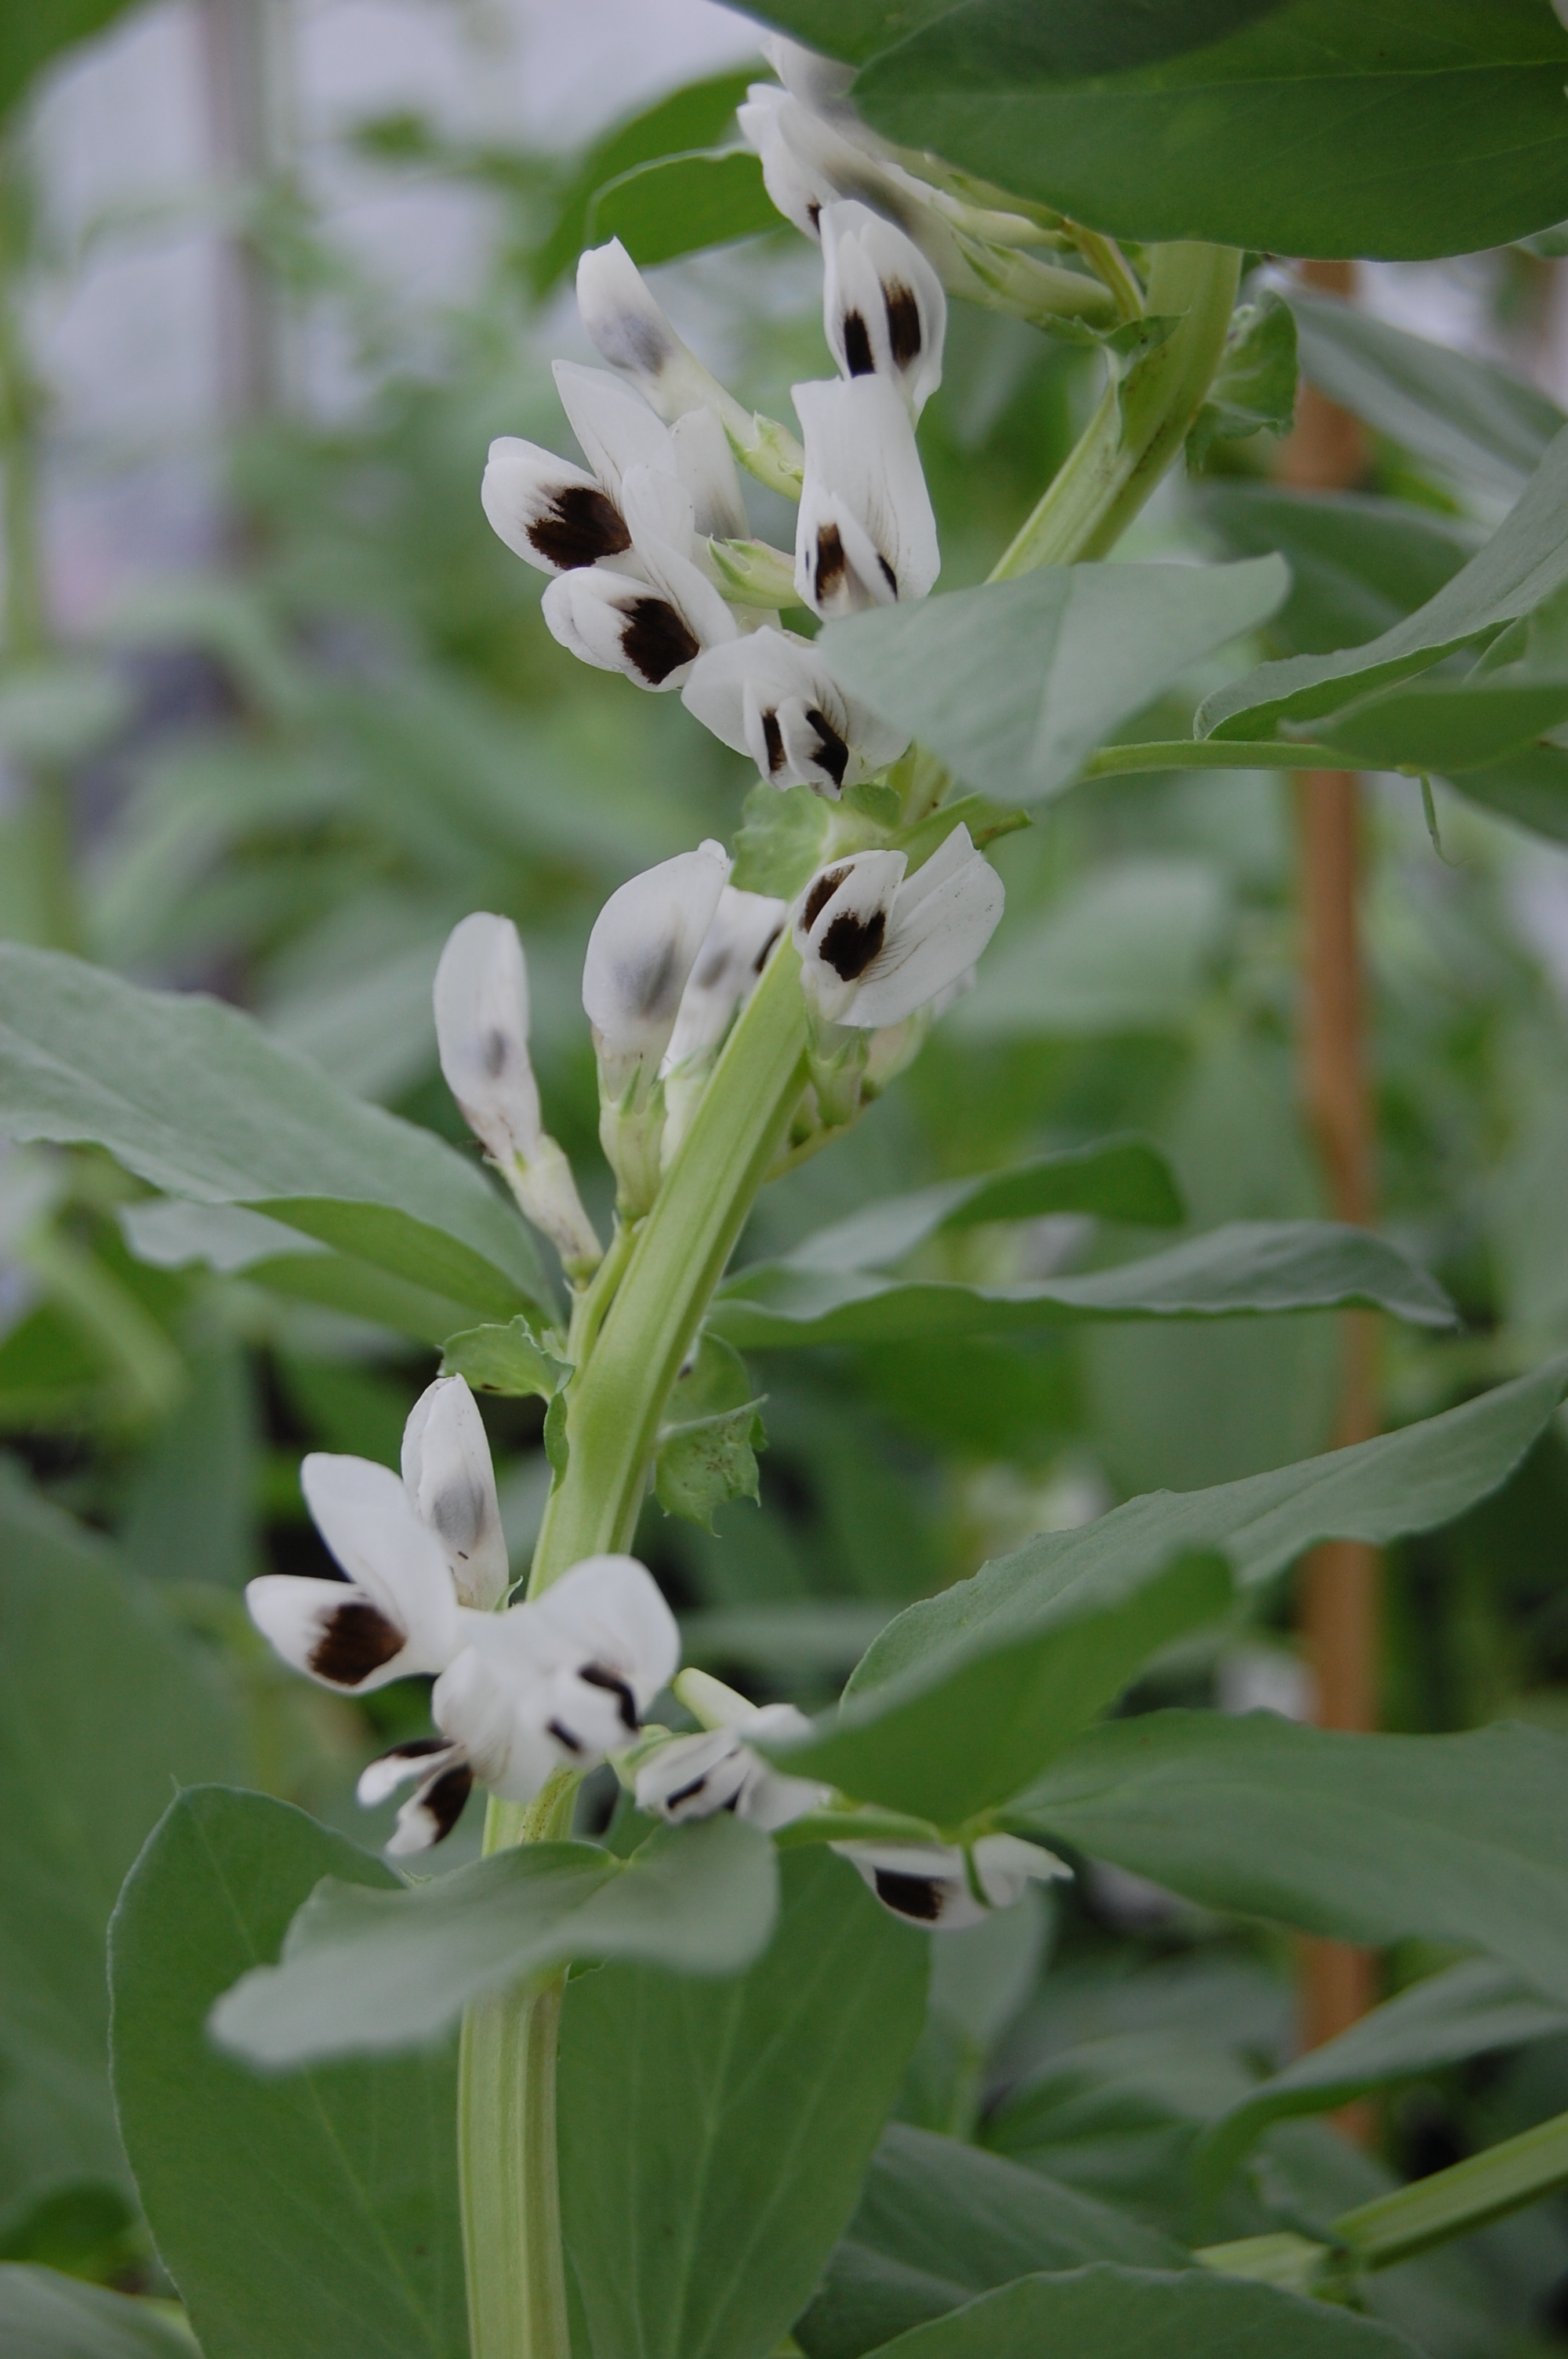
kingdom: Plantae
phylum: Tracheophyta
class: Magnoliopsida
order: Fabales
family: Fabaceae
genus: Vicia
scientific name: Vicia faba
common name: Broad bean
